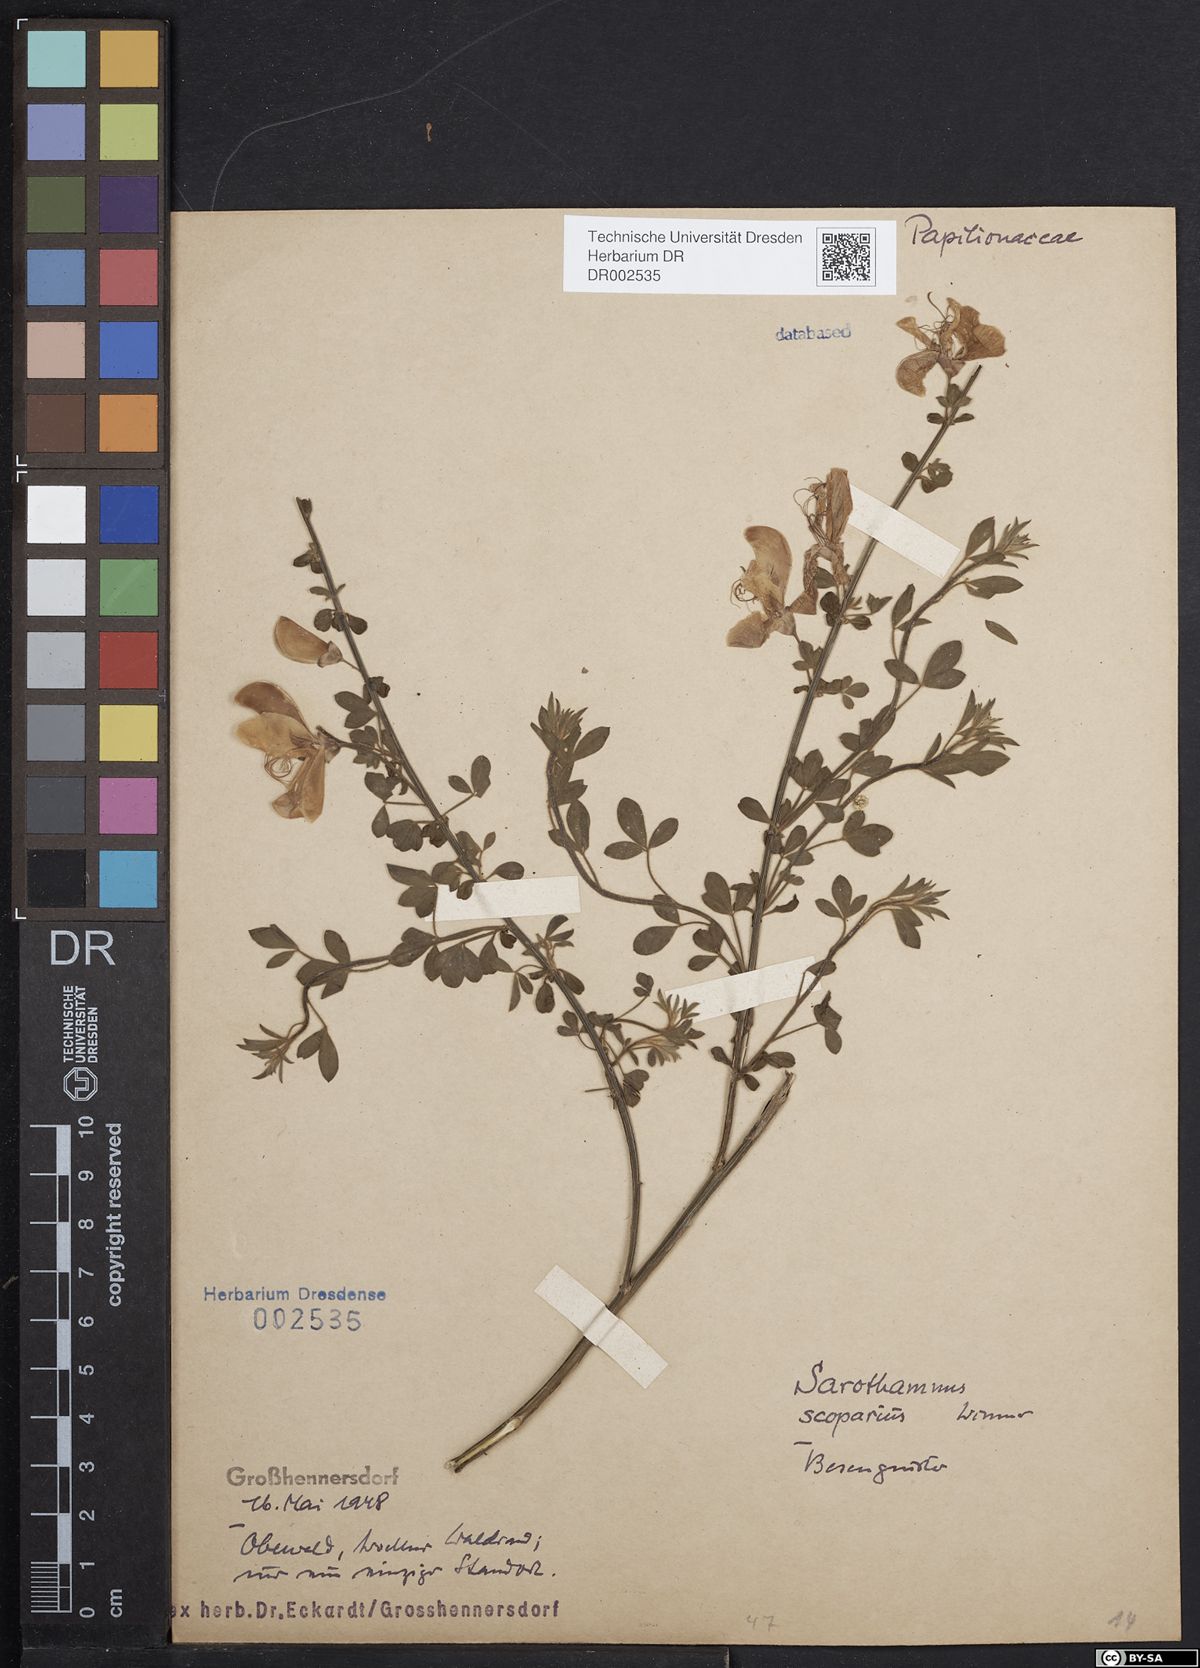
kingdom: Plantae
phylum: Tracheophyta
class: Magnoliopsida
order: Fabales
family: Fabaceae
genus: Cytisus
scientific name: Cytisus scoparius
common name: Scotch broom
